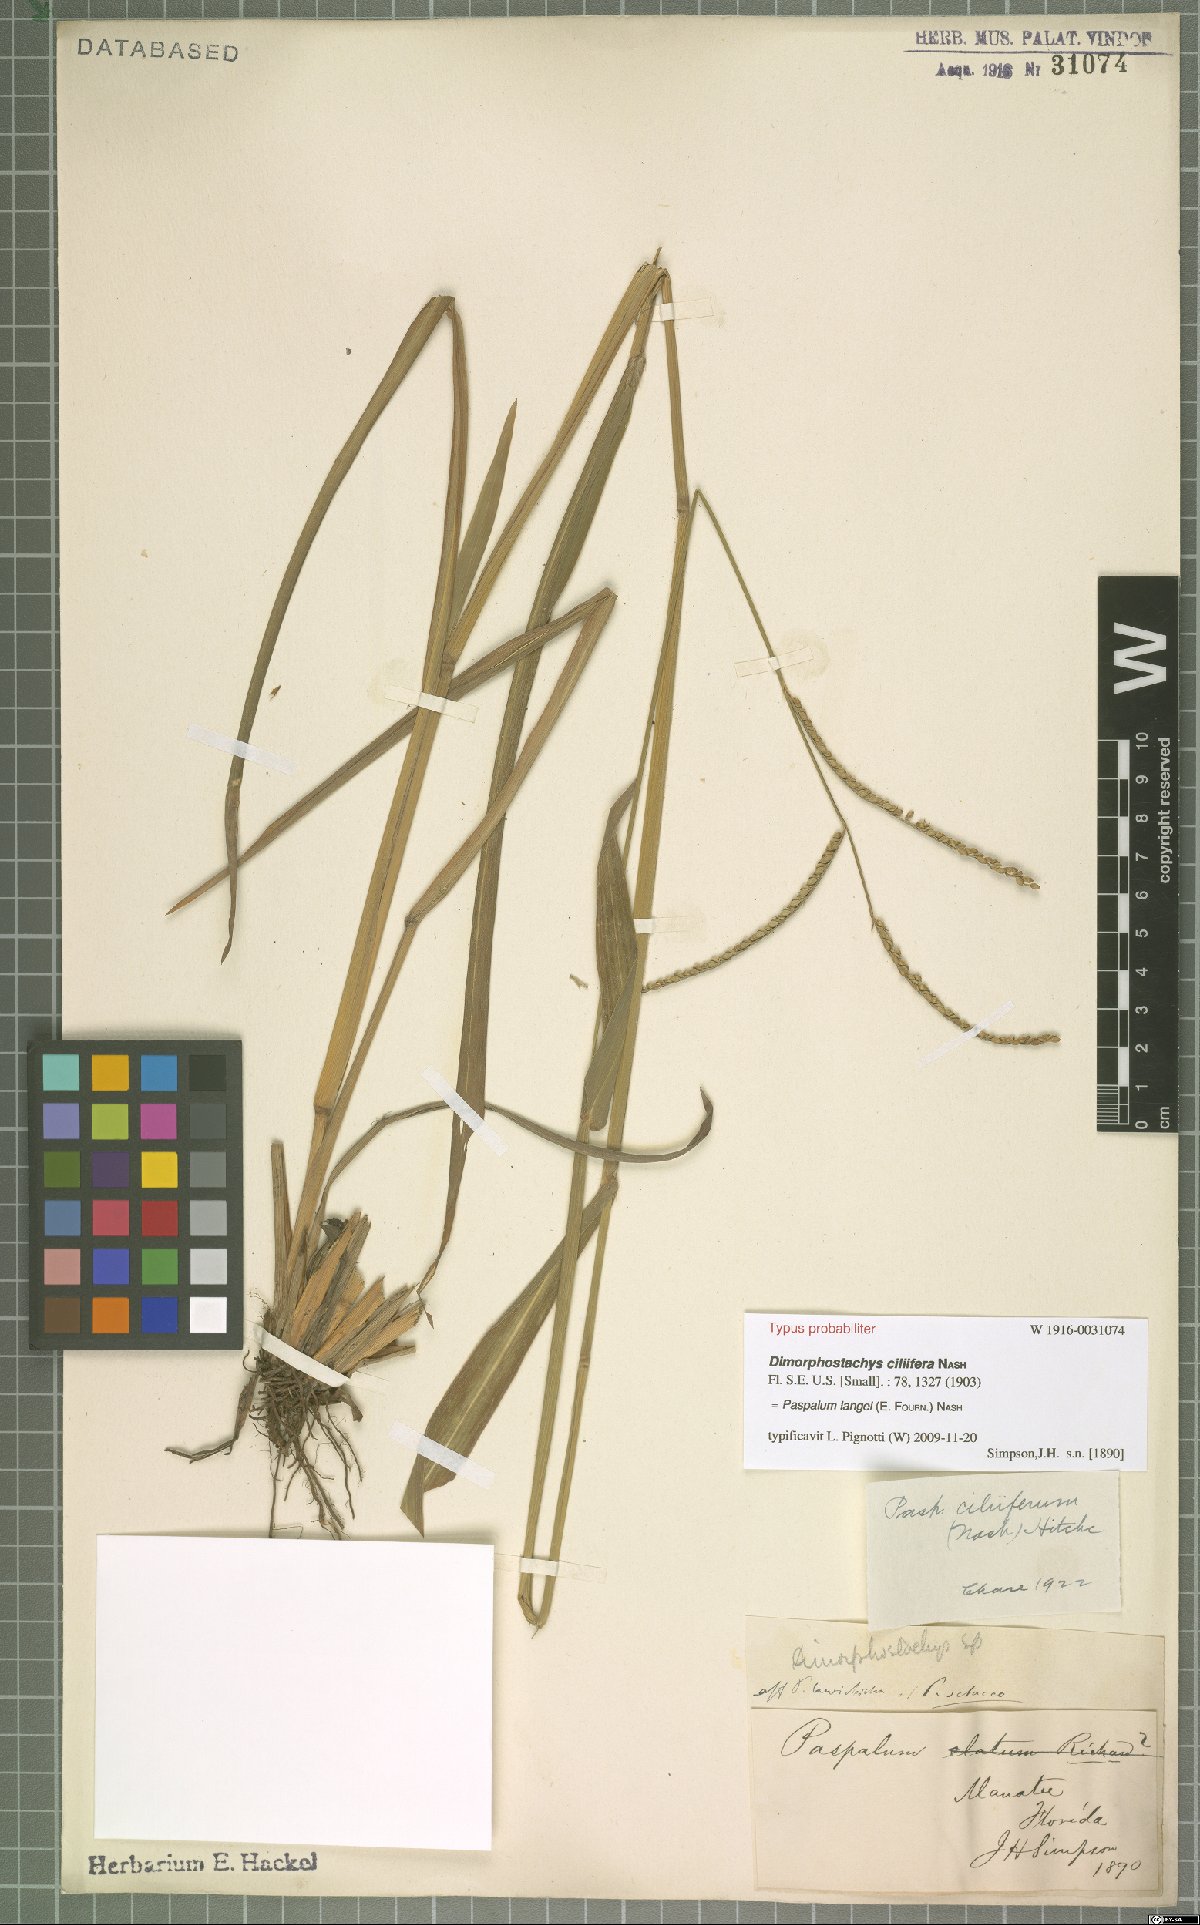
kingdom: Plantae
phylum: Tracheophyta
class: Liliopsida
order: Poales
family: Poaceae
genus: Paspalum
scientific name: Paspalum langei
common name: Rusty-seed paspalum
